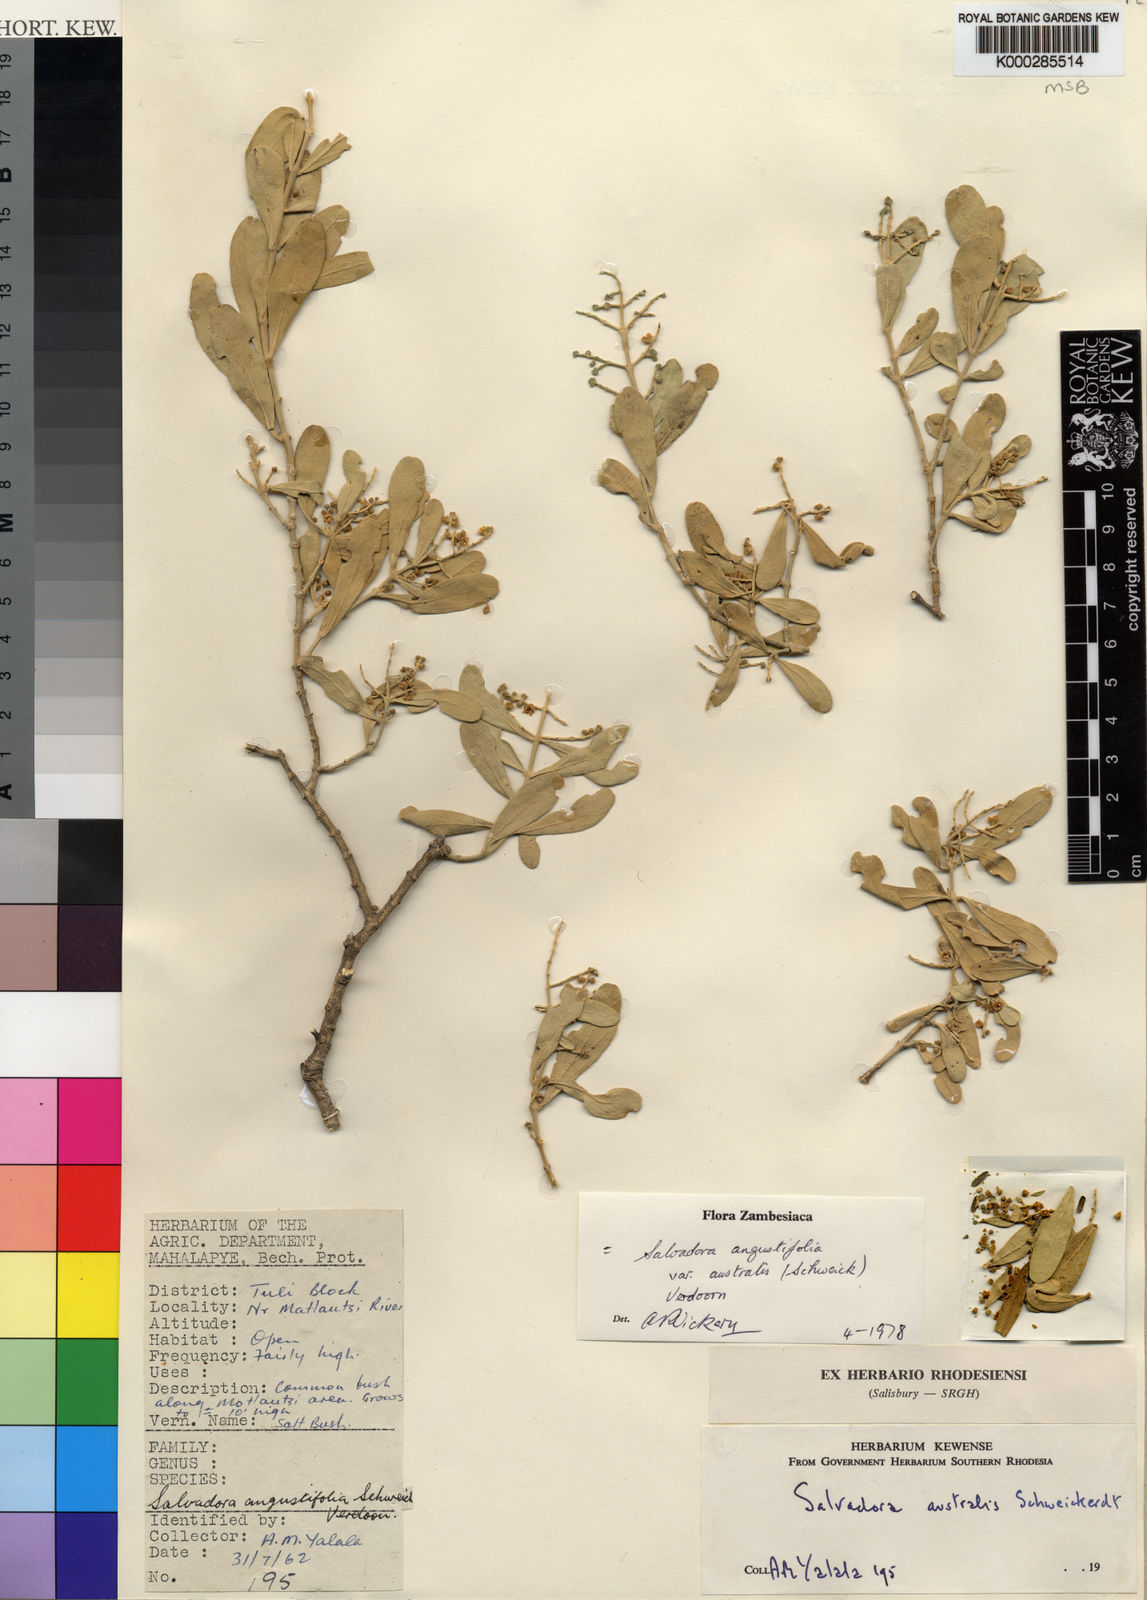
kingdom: Plantae
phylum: Tracheophyta
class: Magnoliopsida
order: Brassicales
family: Salvadoraceae
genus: Salvadora
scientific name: Salvadora australis
